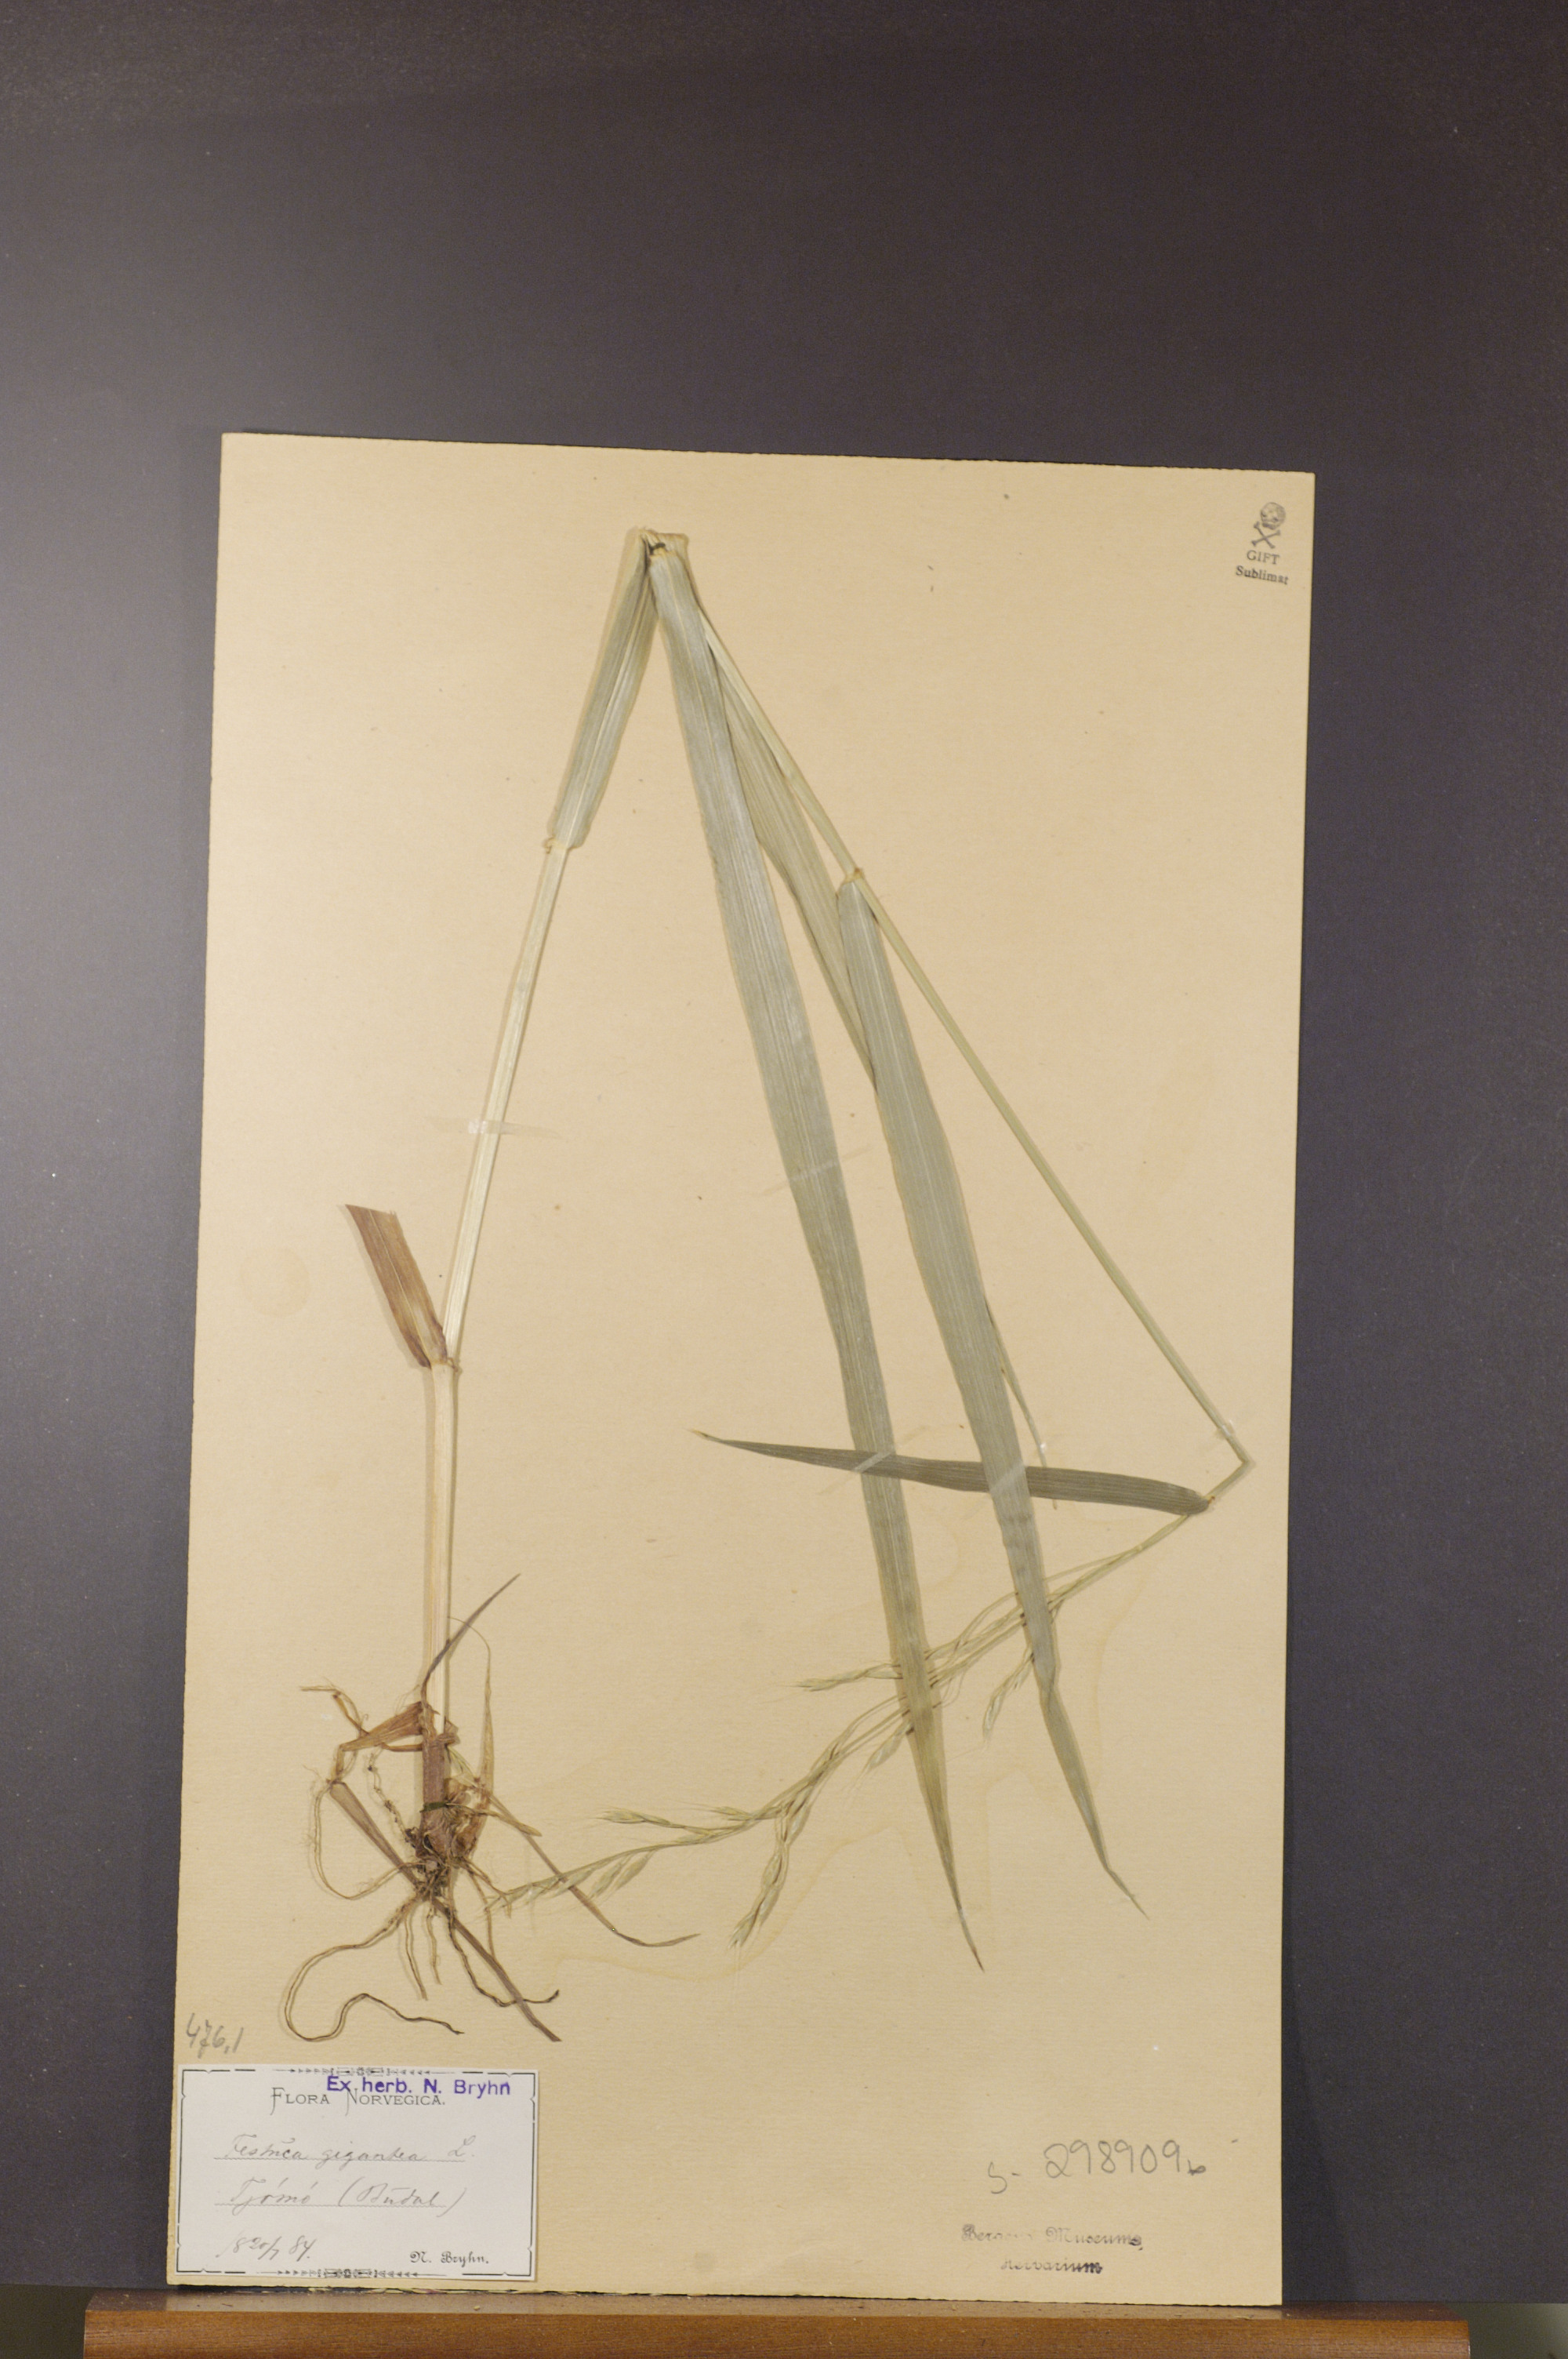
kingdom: Plantae
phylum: Tracheophyta
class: Liliopsida
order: Poales
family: Poaceae
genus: Lolium
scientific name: Lolium giganteum
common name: Giant fescue
